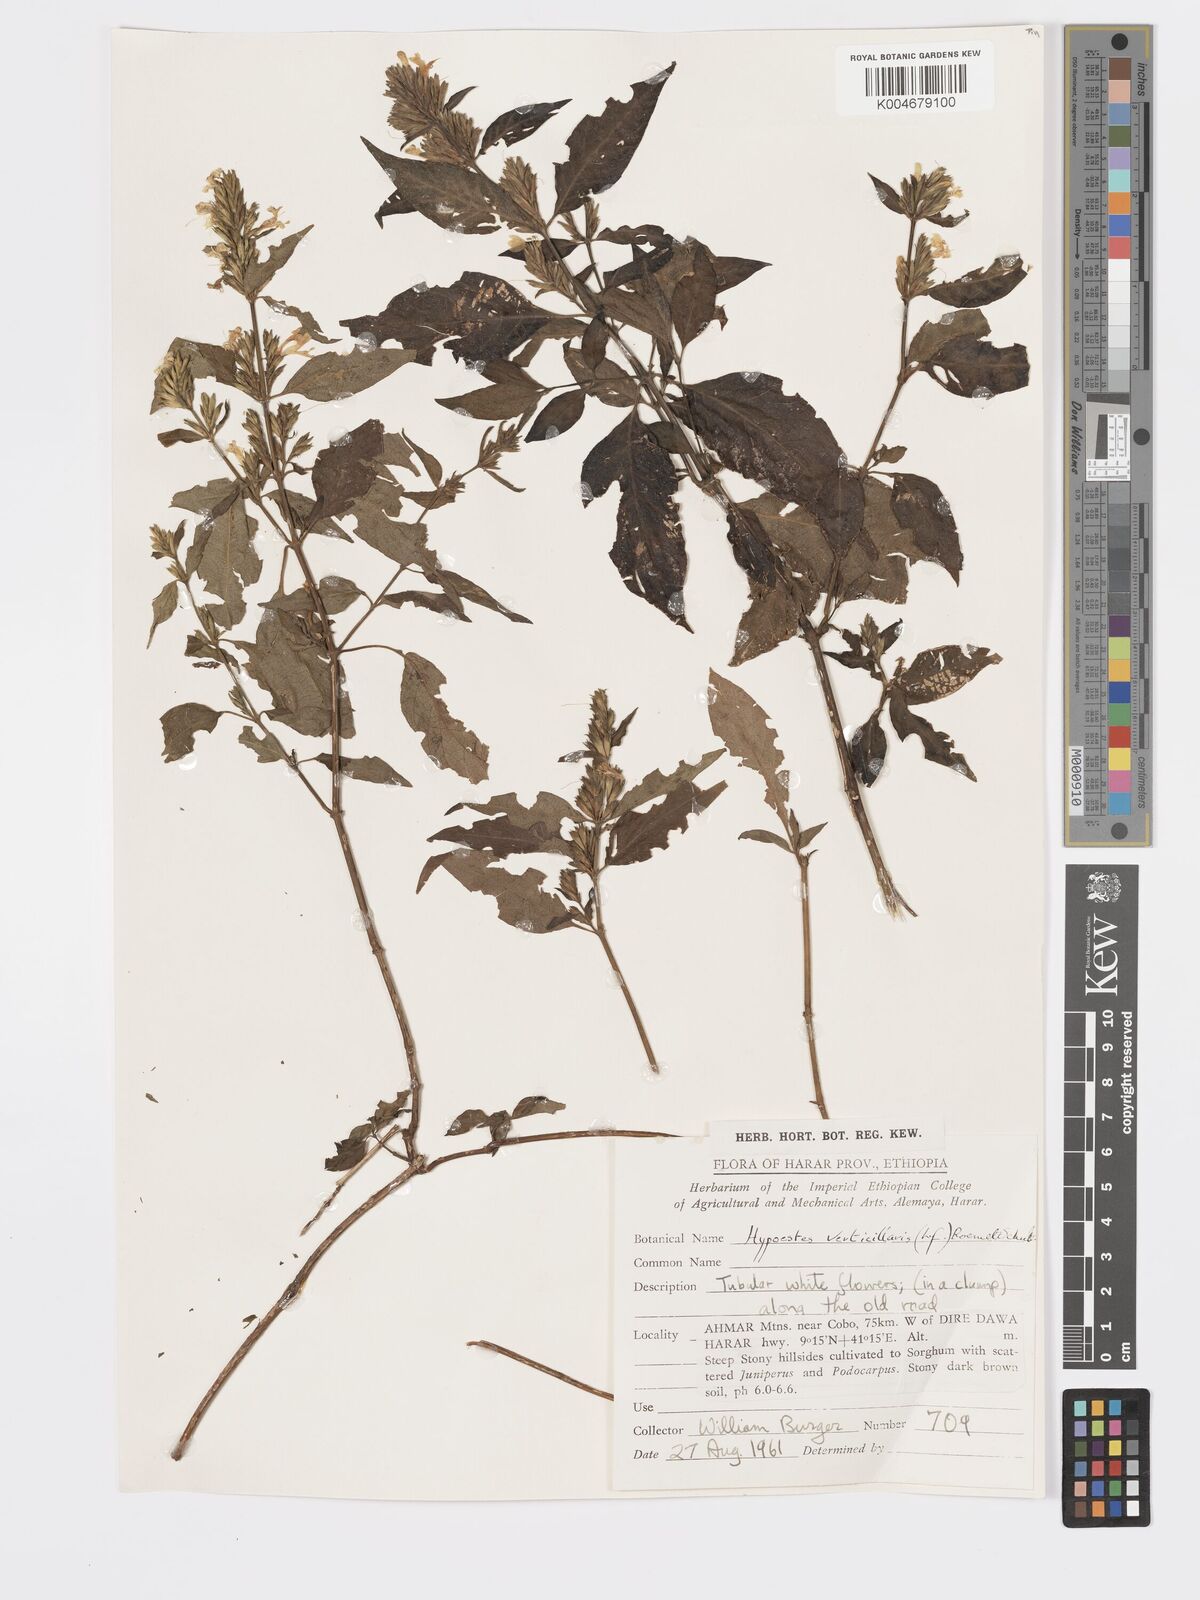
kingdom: Plantae
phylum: Tracheophyta
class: Magnoliopsida
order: Lamiales
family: Acanthaceae
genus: Hypoestes
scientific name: Hypoestes forskaolii
